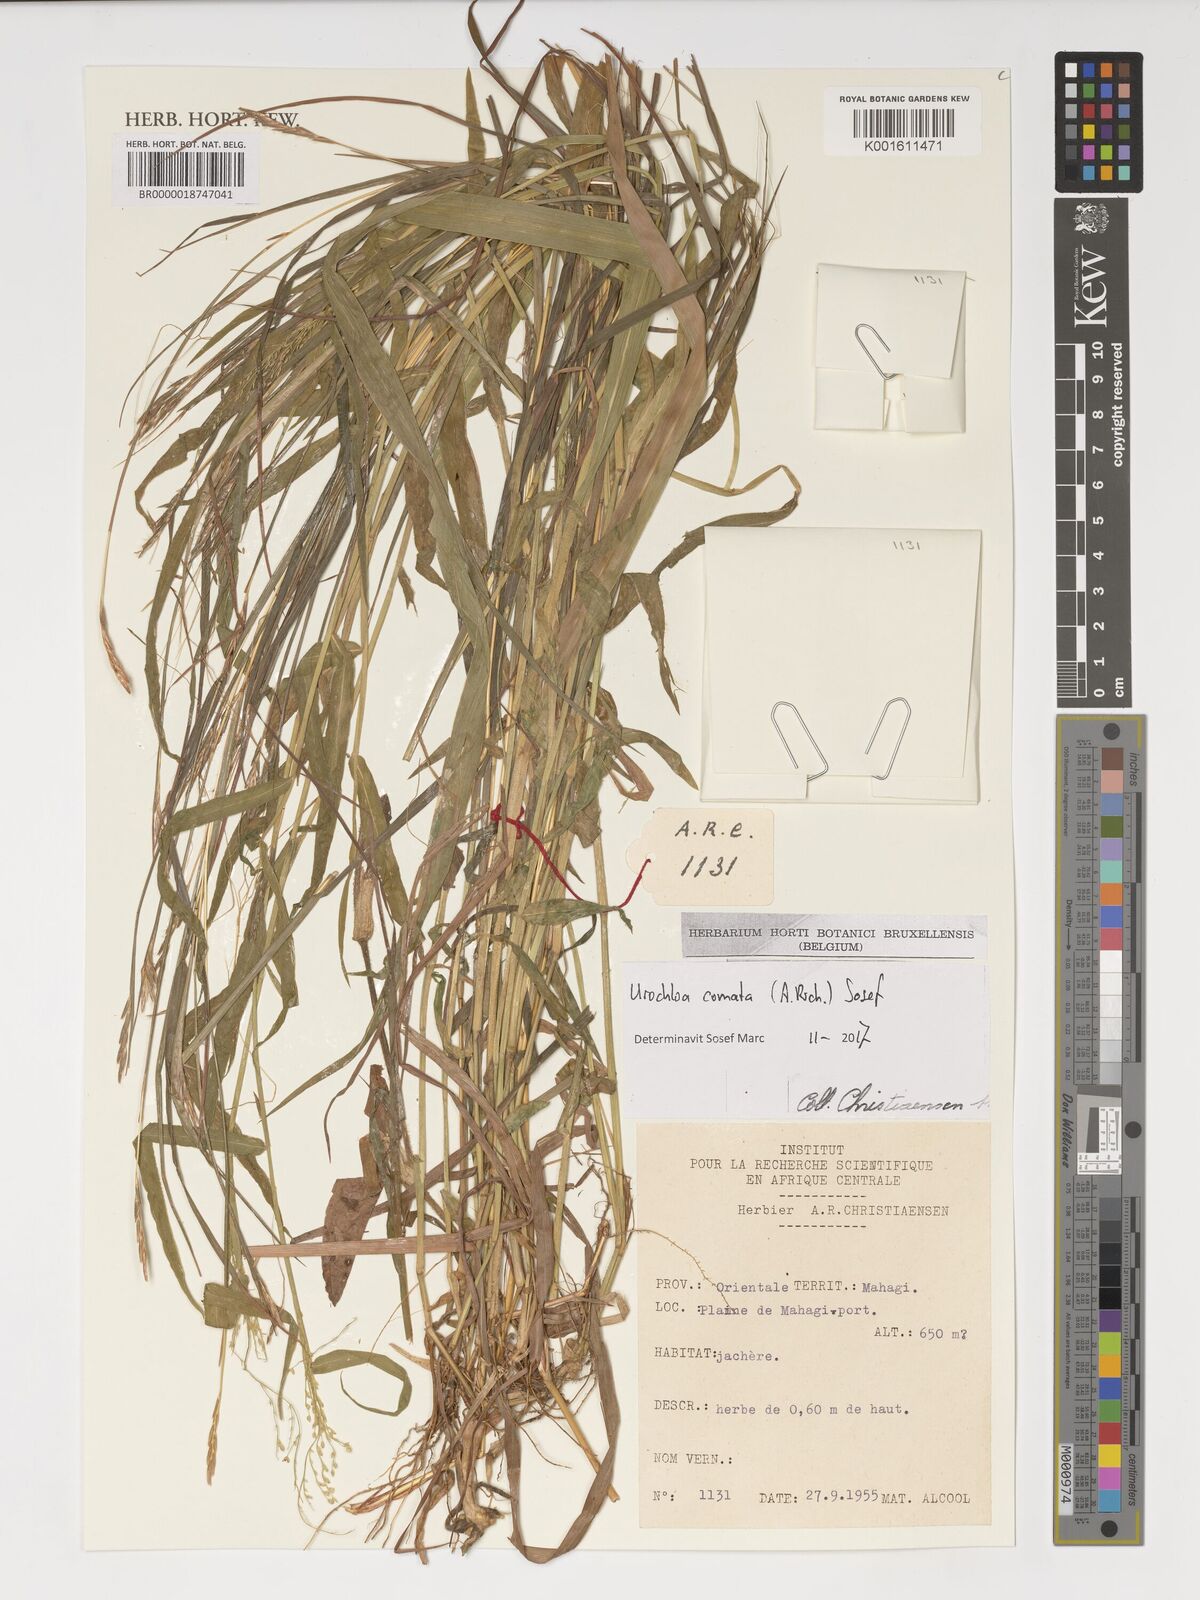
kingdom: Plantae
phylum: Tracheophyta
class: Liliopsida
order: Poales
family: Poaceae
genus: Urochloa
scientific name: Urochloa comata
